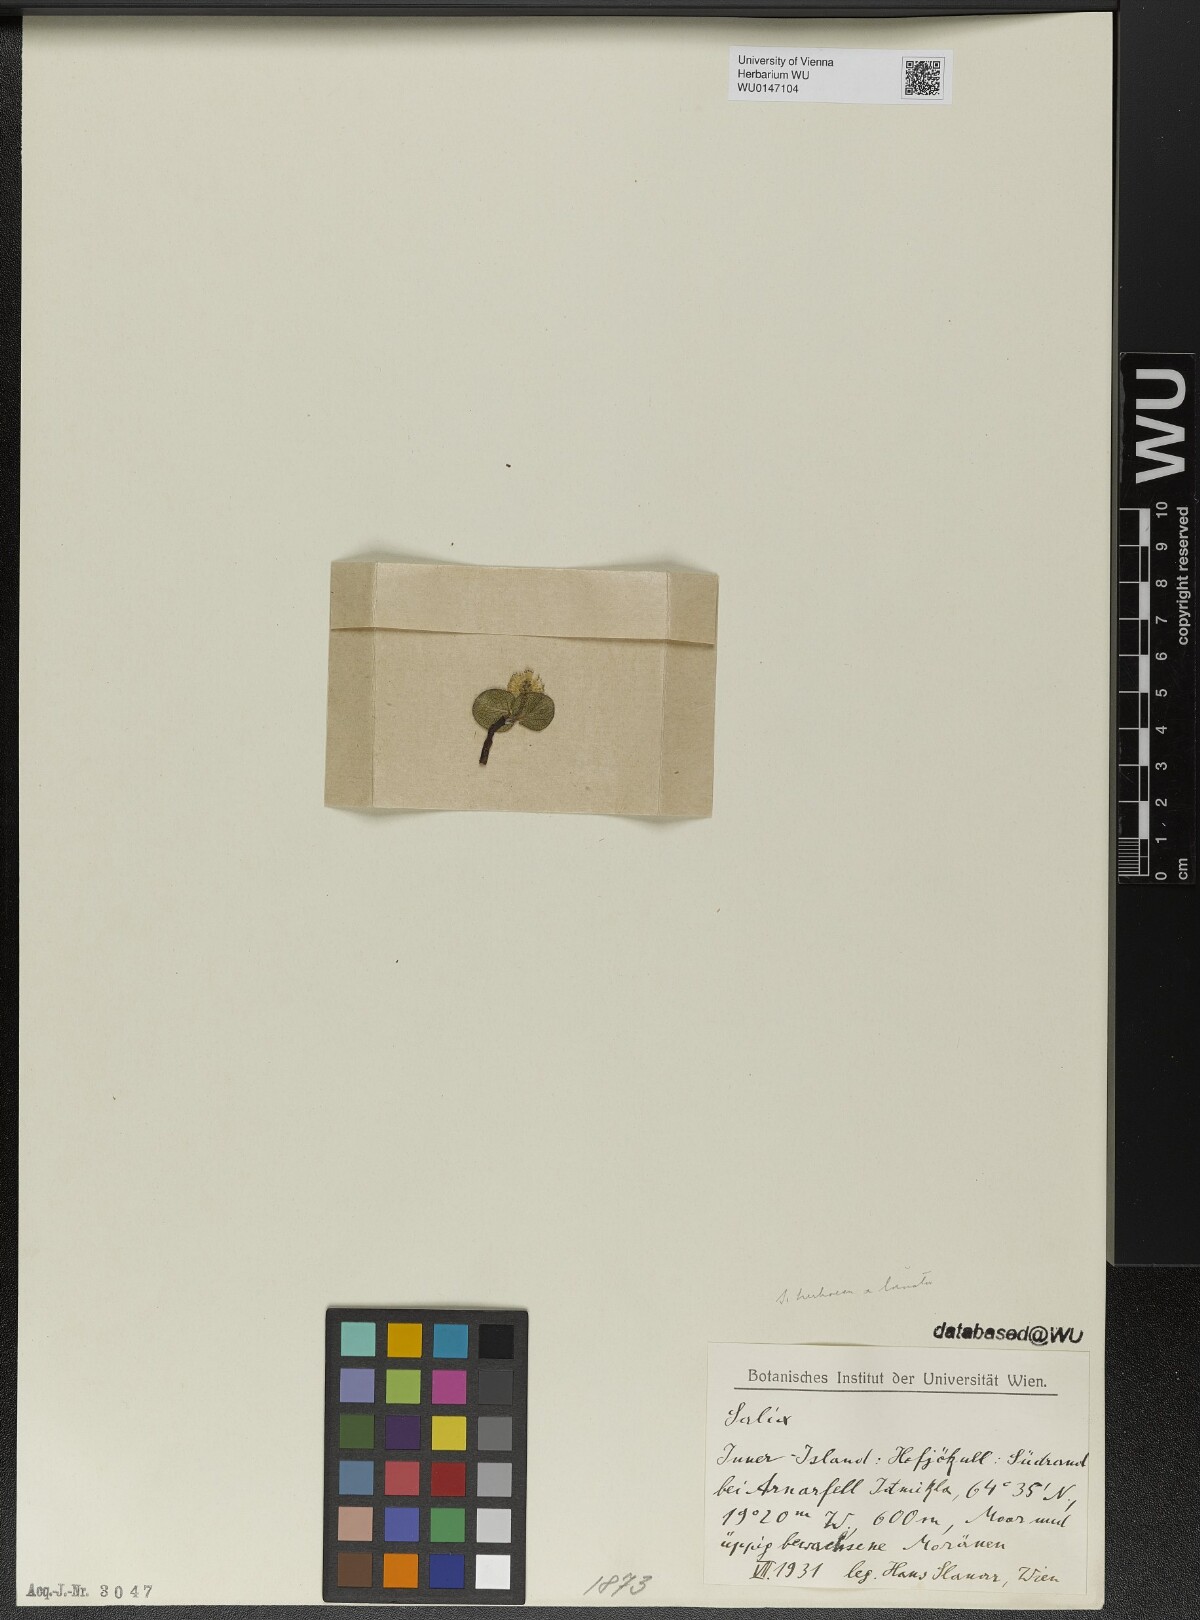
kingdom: Plantae
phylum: Tracheophyta
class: Magnoliopsida
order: Malpighiales
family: Salicaceae
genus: Salix
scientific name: Salix
